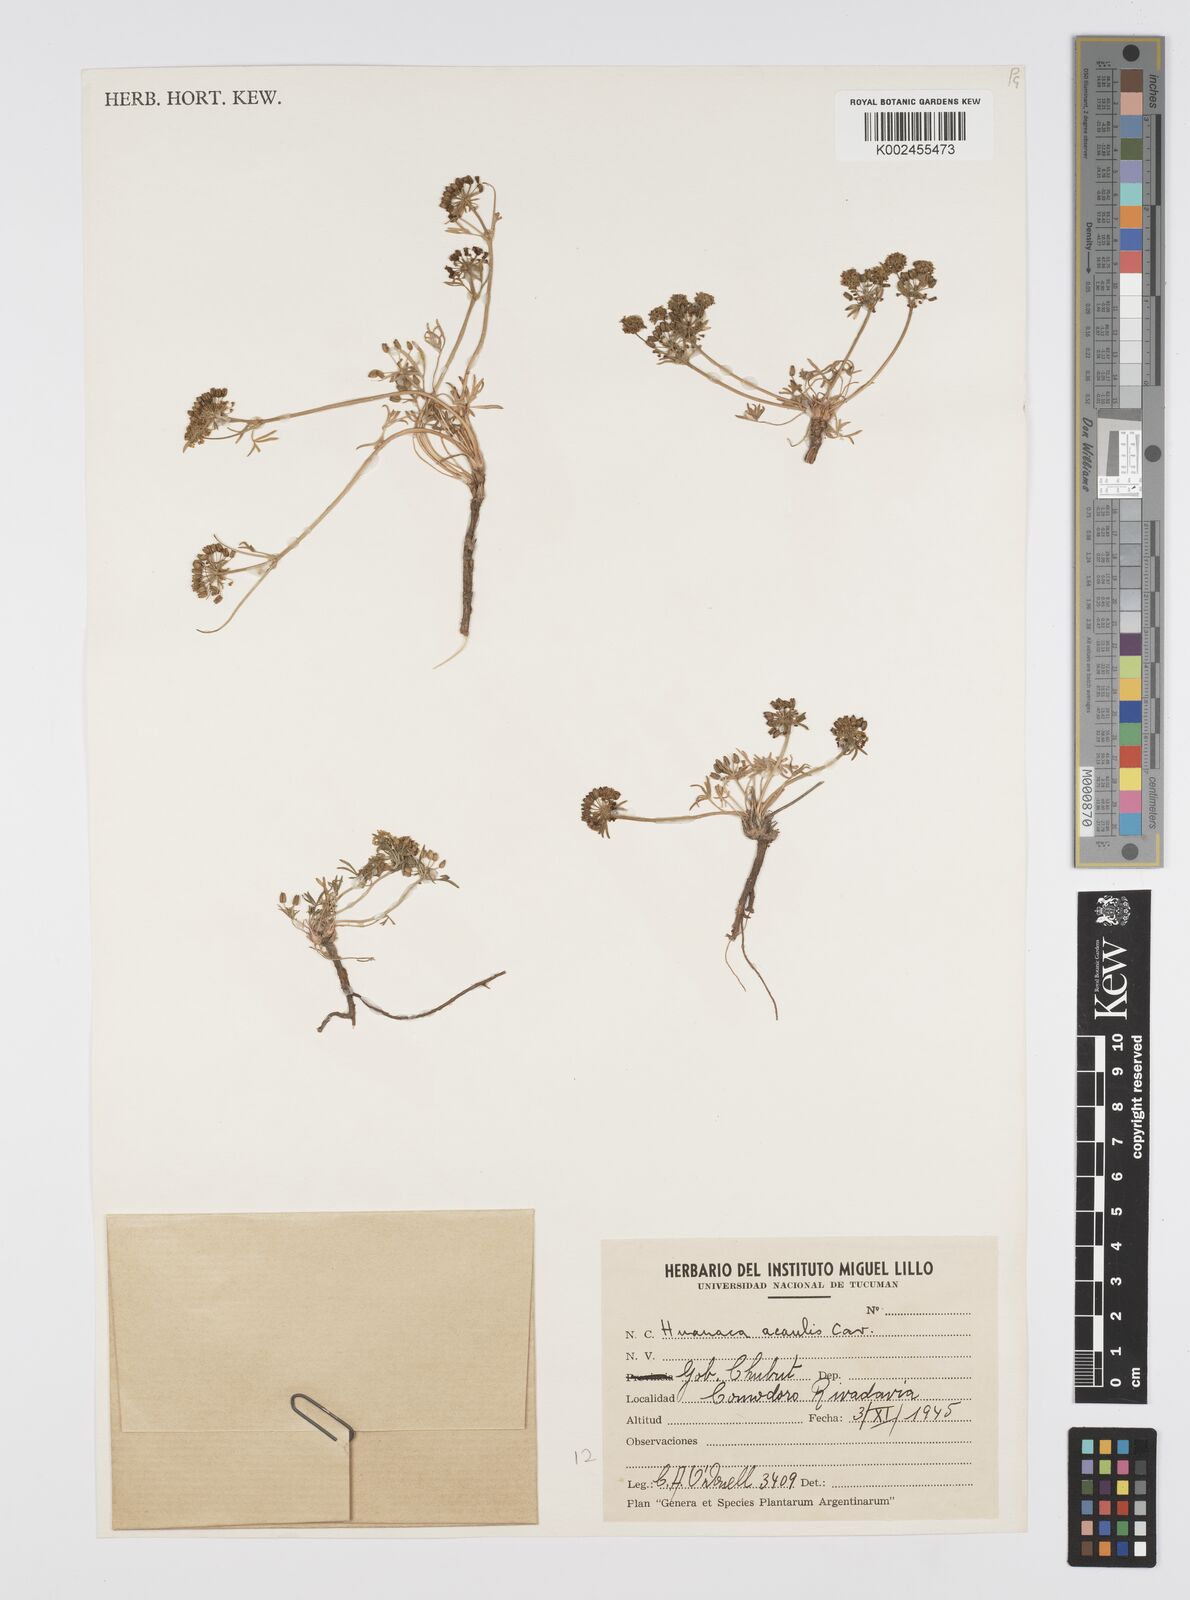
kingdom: Plantae
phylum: Tracheophyta
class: Magnoliopsida
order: Apiales
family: Apiaceae
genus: Azorella
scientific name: Azorella andina
